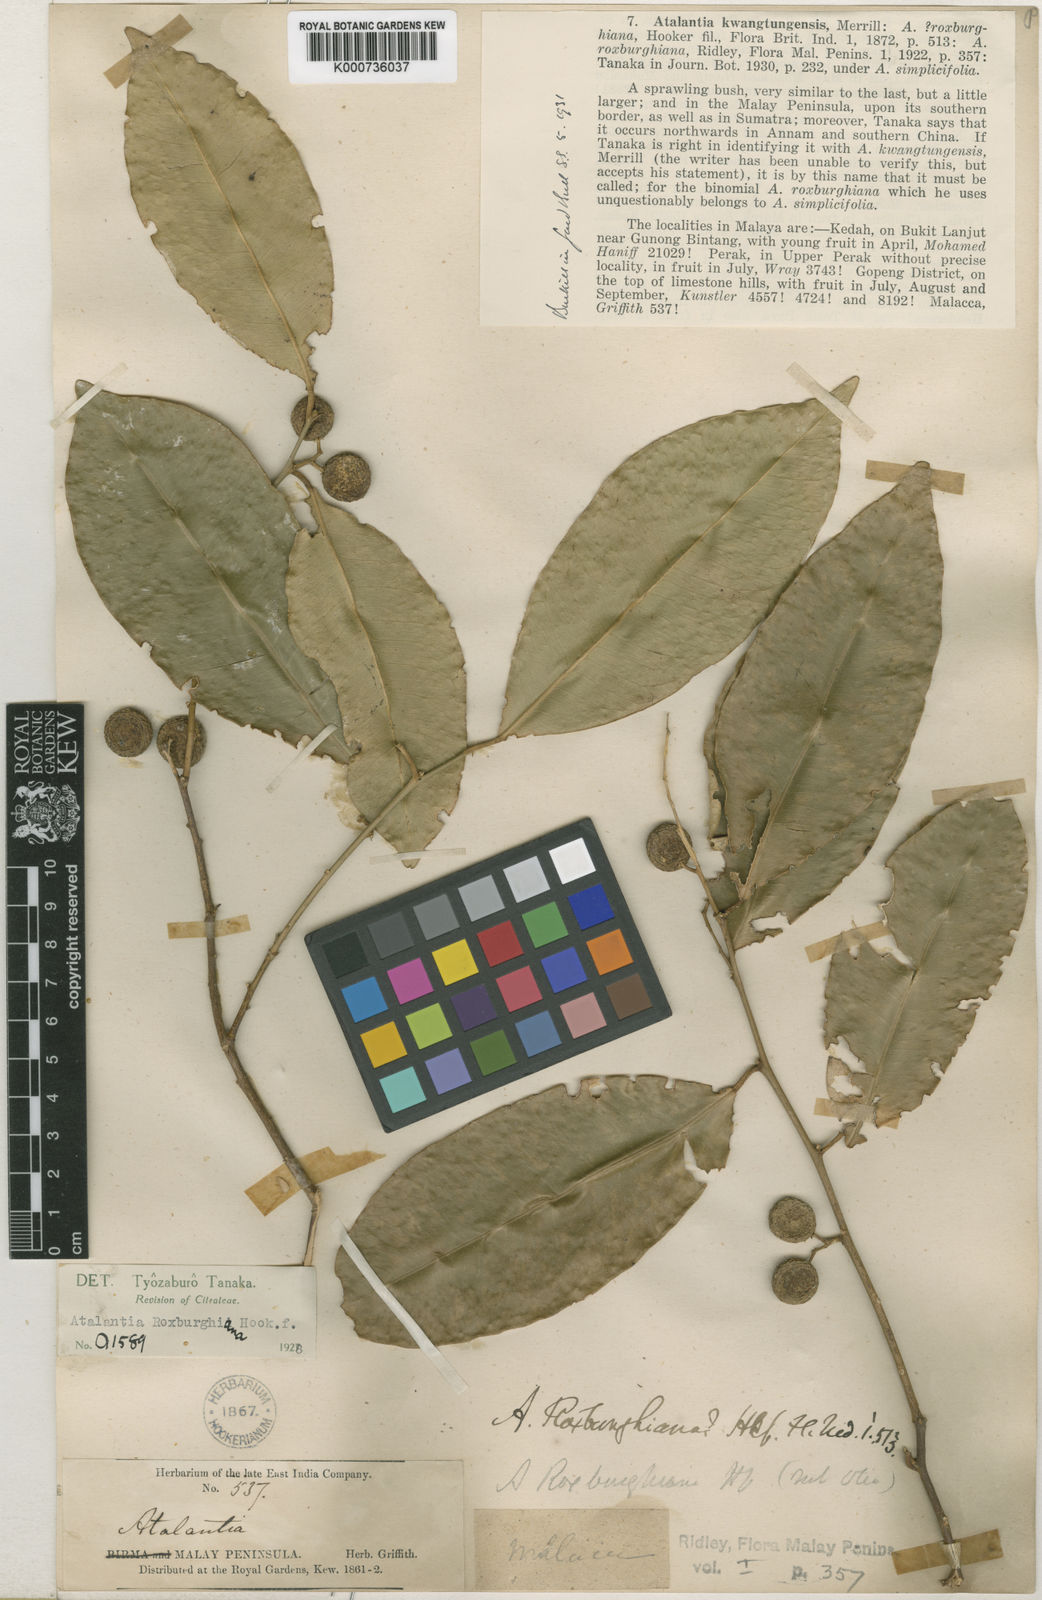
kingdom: Plantae
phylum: Tracheophyta
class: Magnoliopsida
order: Sapindales
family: Rutaceae
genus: Atalantia
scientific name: Atalantia simplicifolia
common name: Khasi hills atalantia
